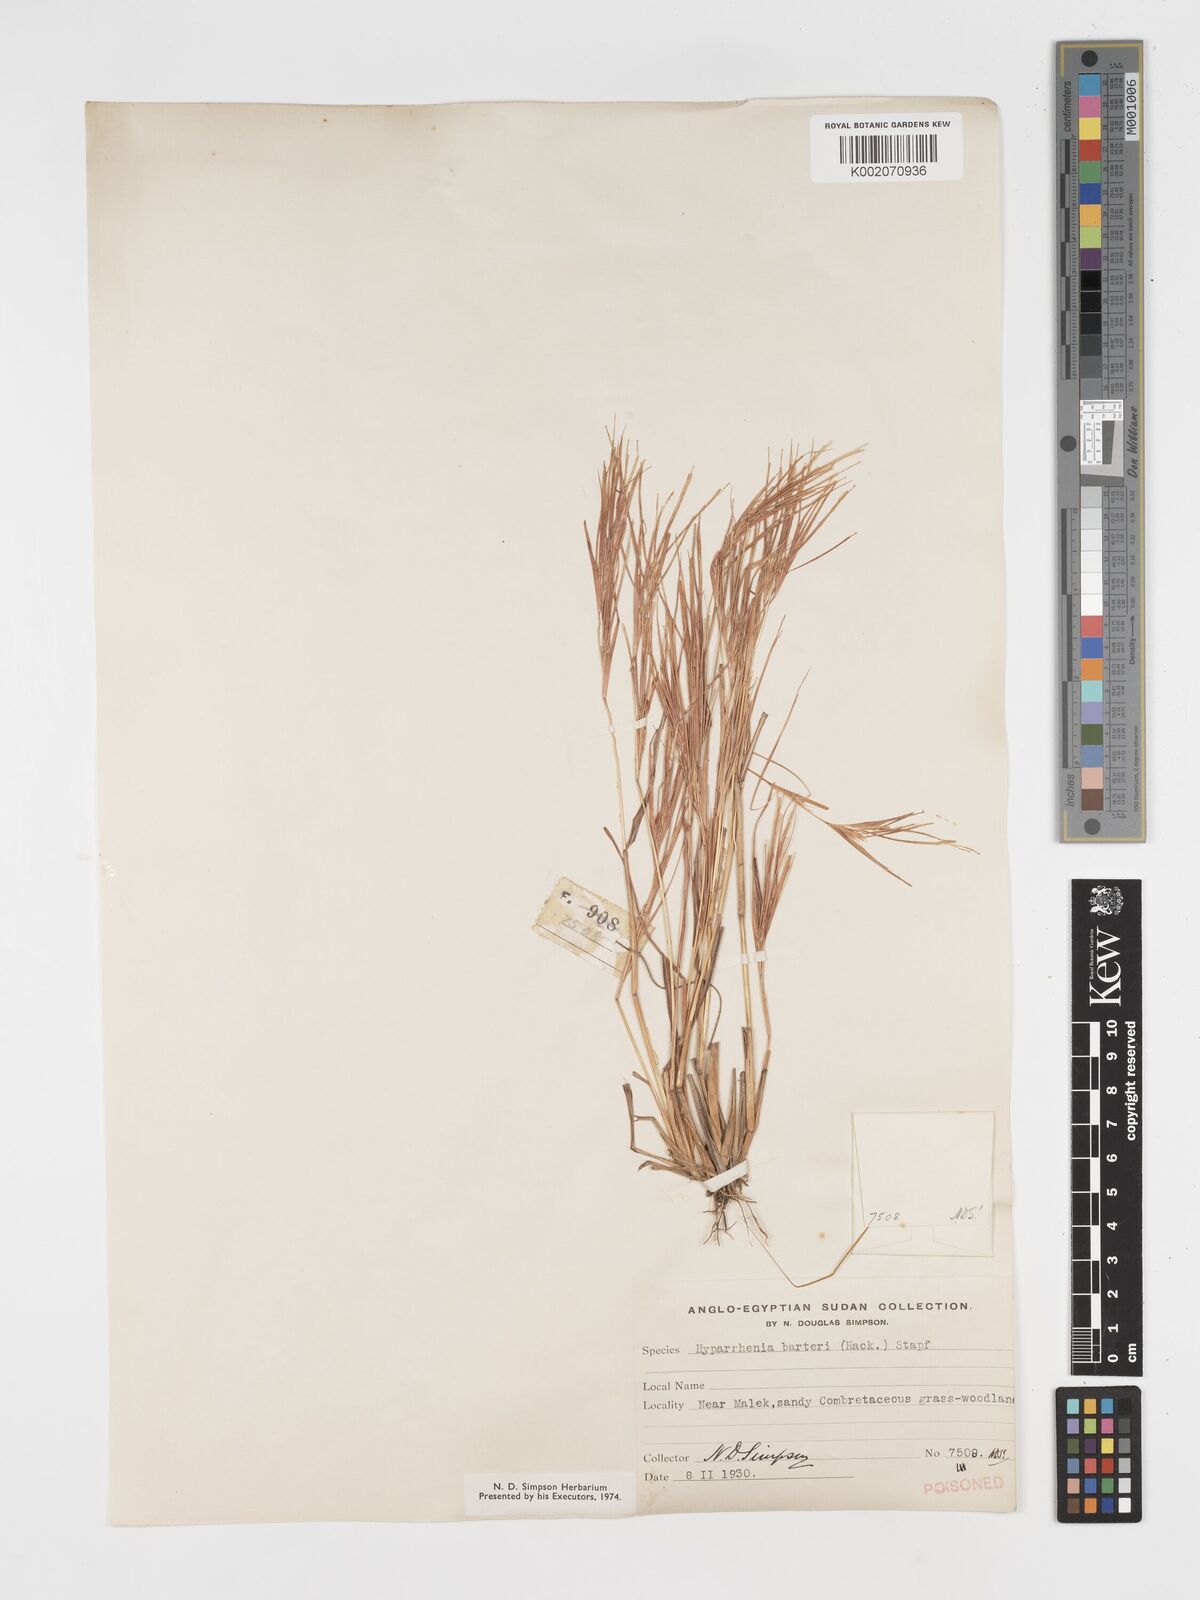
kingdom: Plantae
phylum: Tracheophyta
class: Liliopsida
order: Poales
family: Poaceae
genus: Hyparrhenia
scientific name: Hyparrhenia figariana
